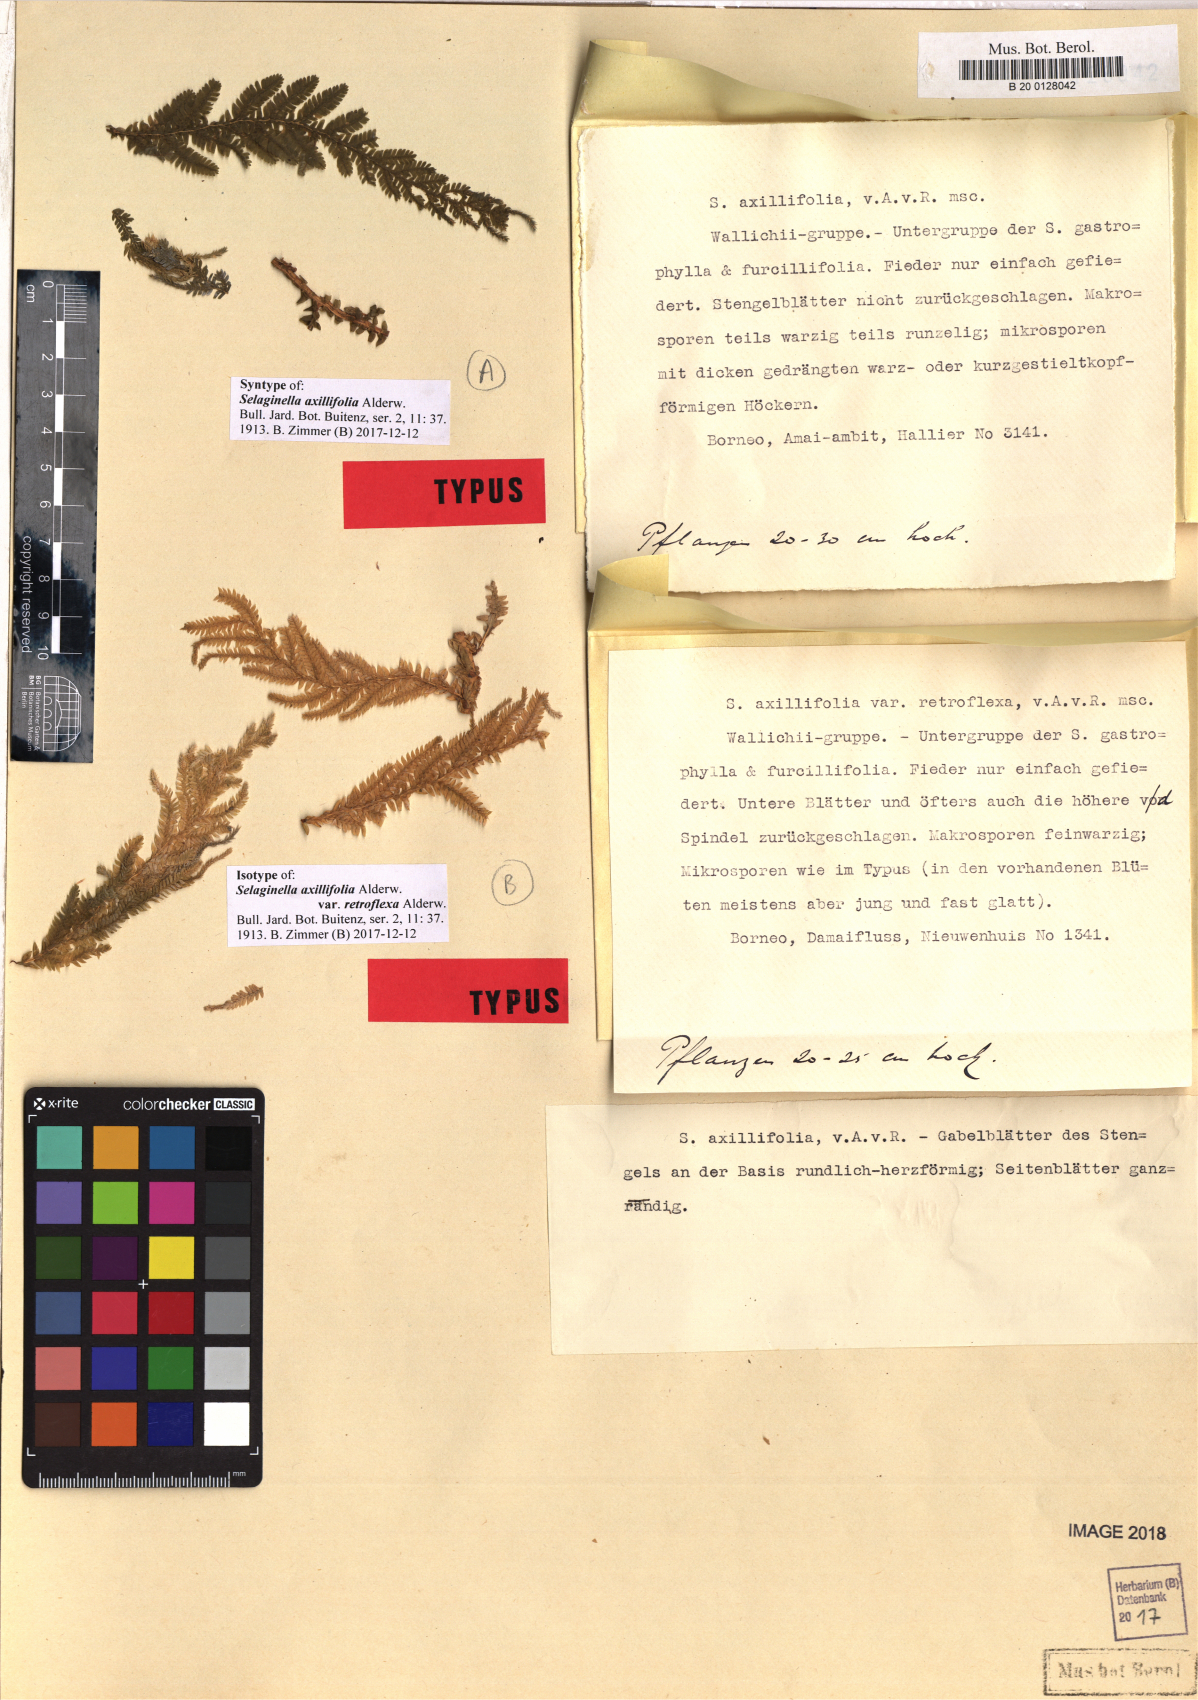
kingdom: Plantae
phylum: Tracheophyta
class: Lycopodiopsida
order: Selaginellales
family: Selaginellaceae
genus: Selaginella
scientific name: Selaginella axillifolia
